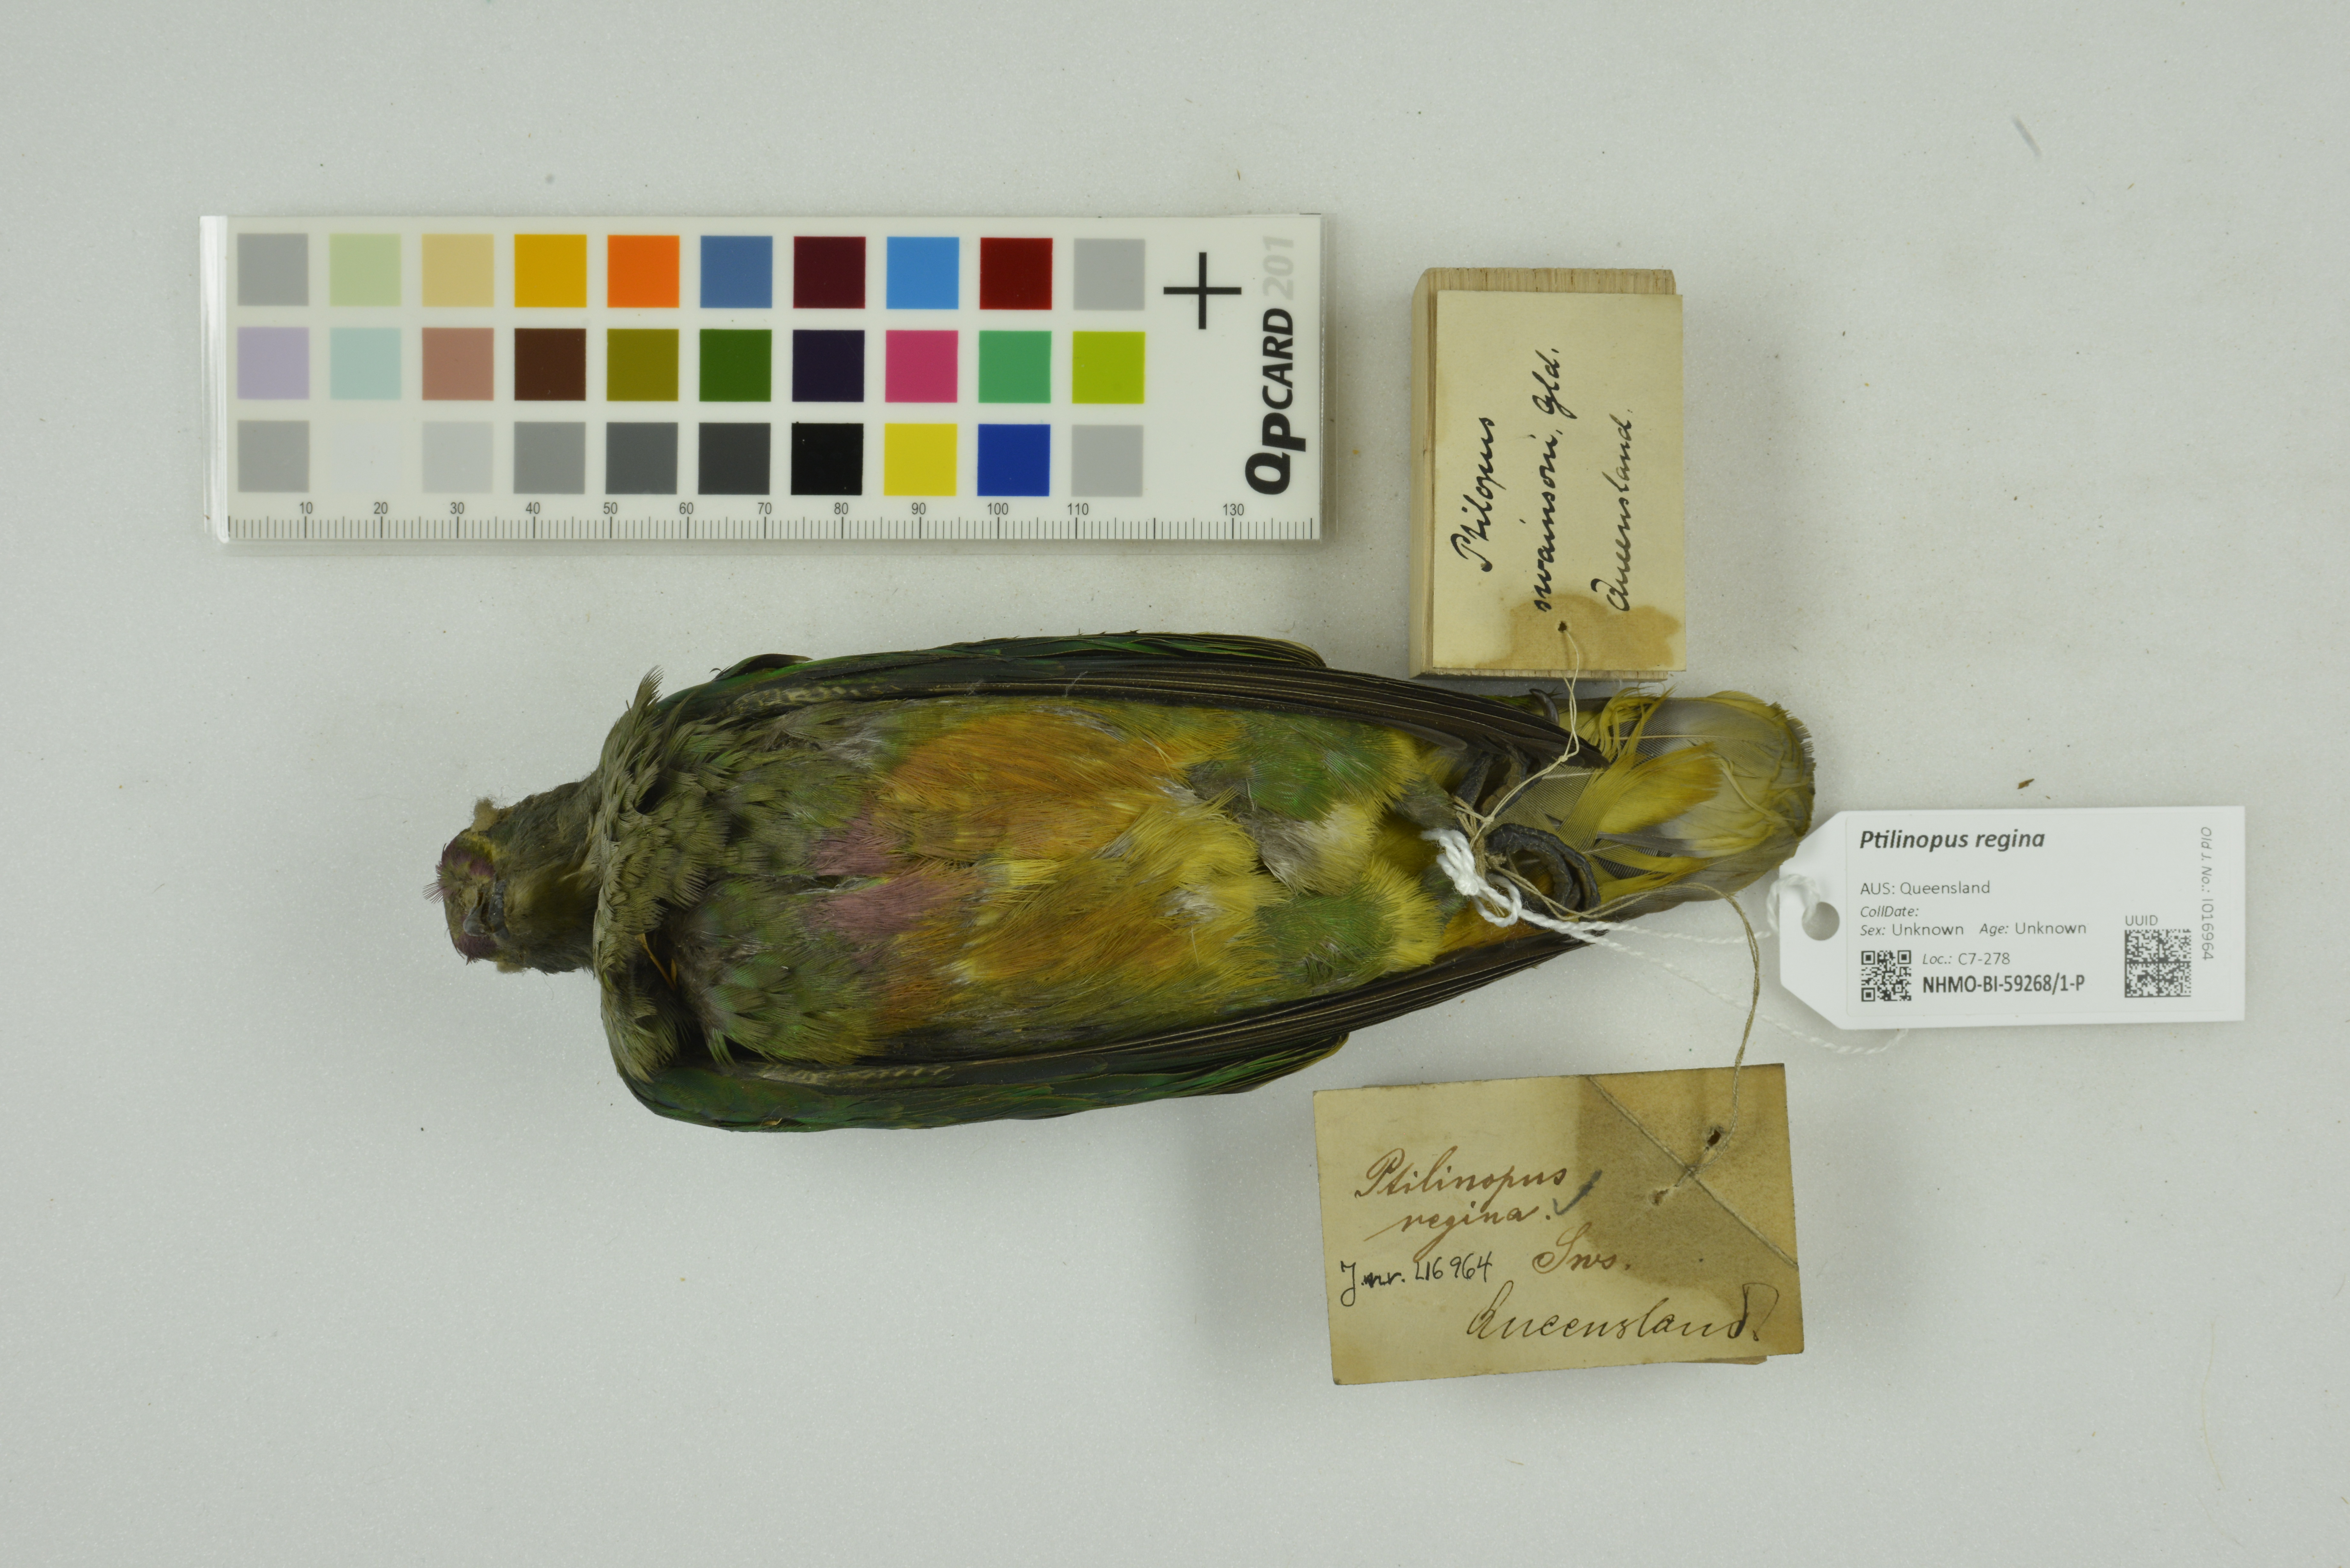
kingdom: Animalia
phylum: Chordata
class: Aves
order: Columbiformes
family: Columbidae
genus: Ptilinopus
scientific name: Ptilinopus regina
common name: Rose-crowned fruit dove
